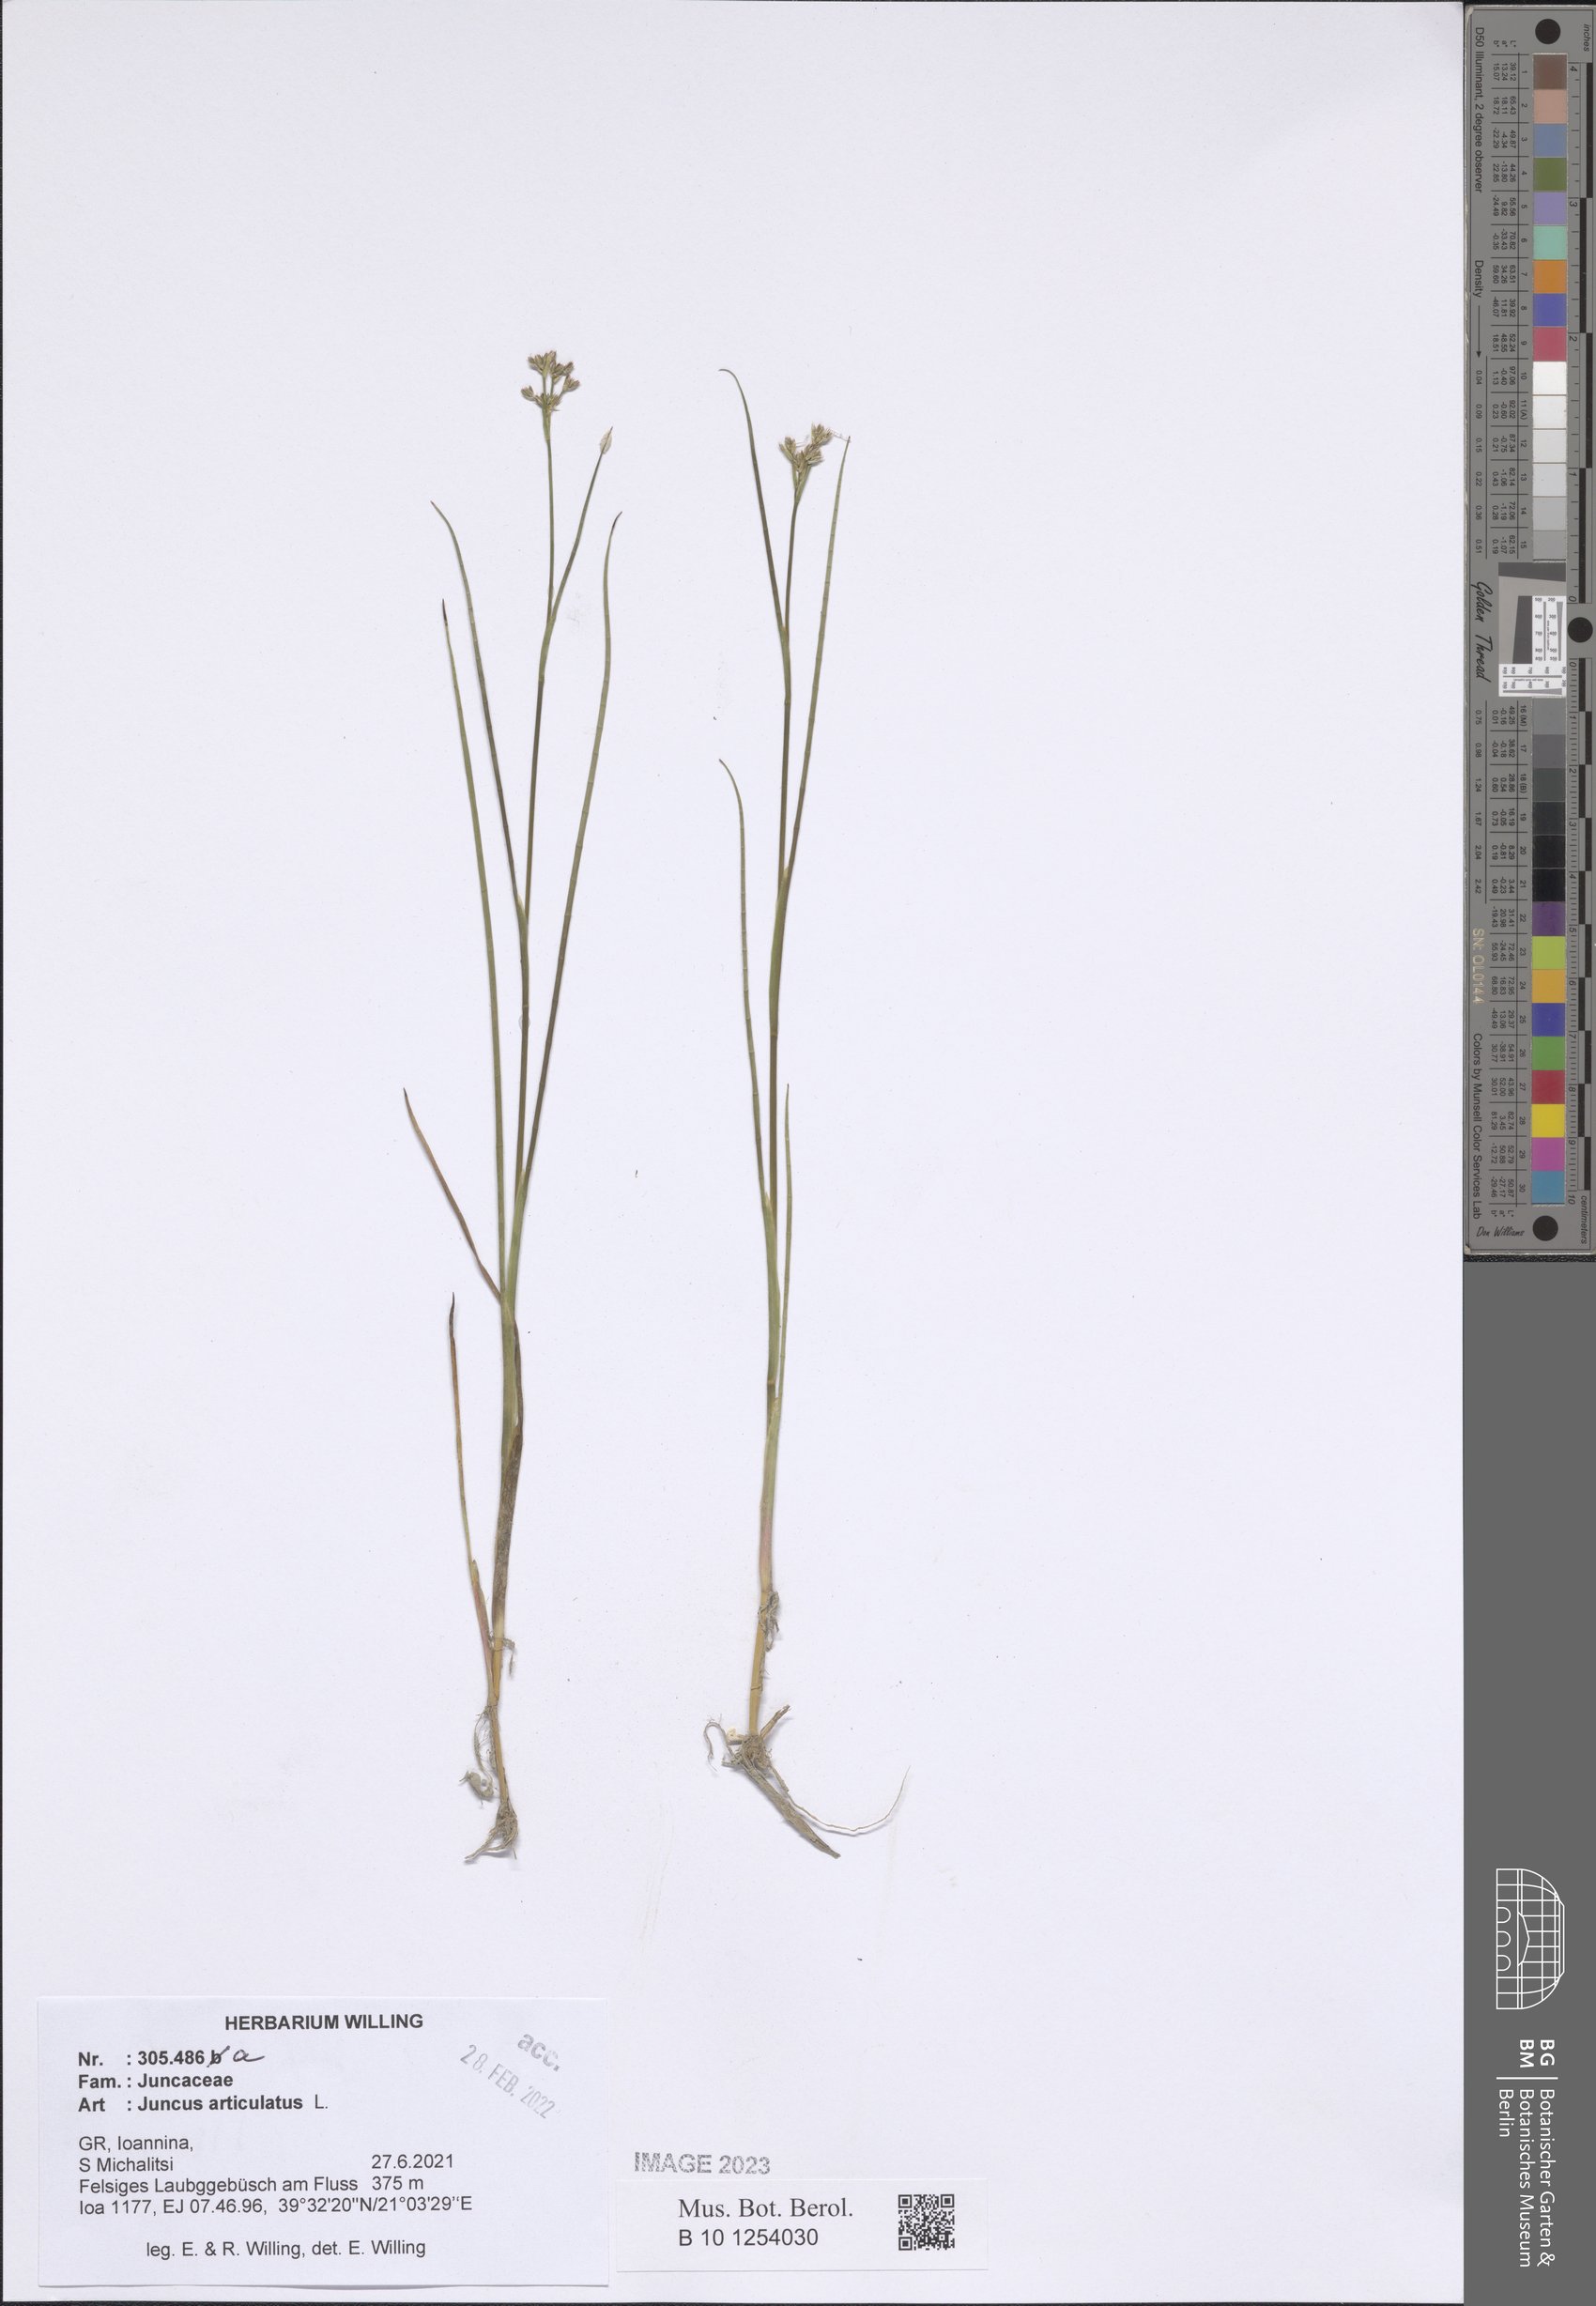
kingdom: Plantae
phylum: Tracheophyta
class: Liliopsida
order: Poales
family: Juncaceae
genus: Juncus
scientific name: Juncus articulatus
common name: Jointed rush
